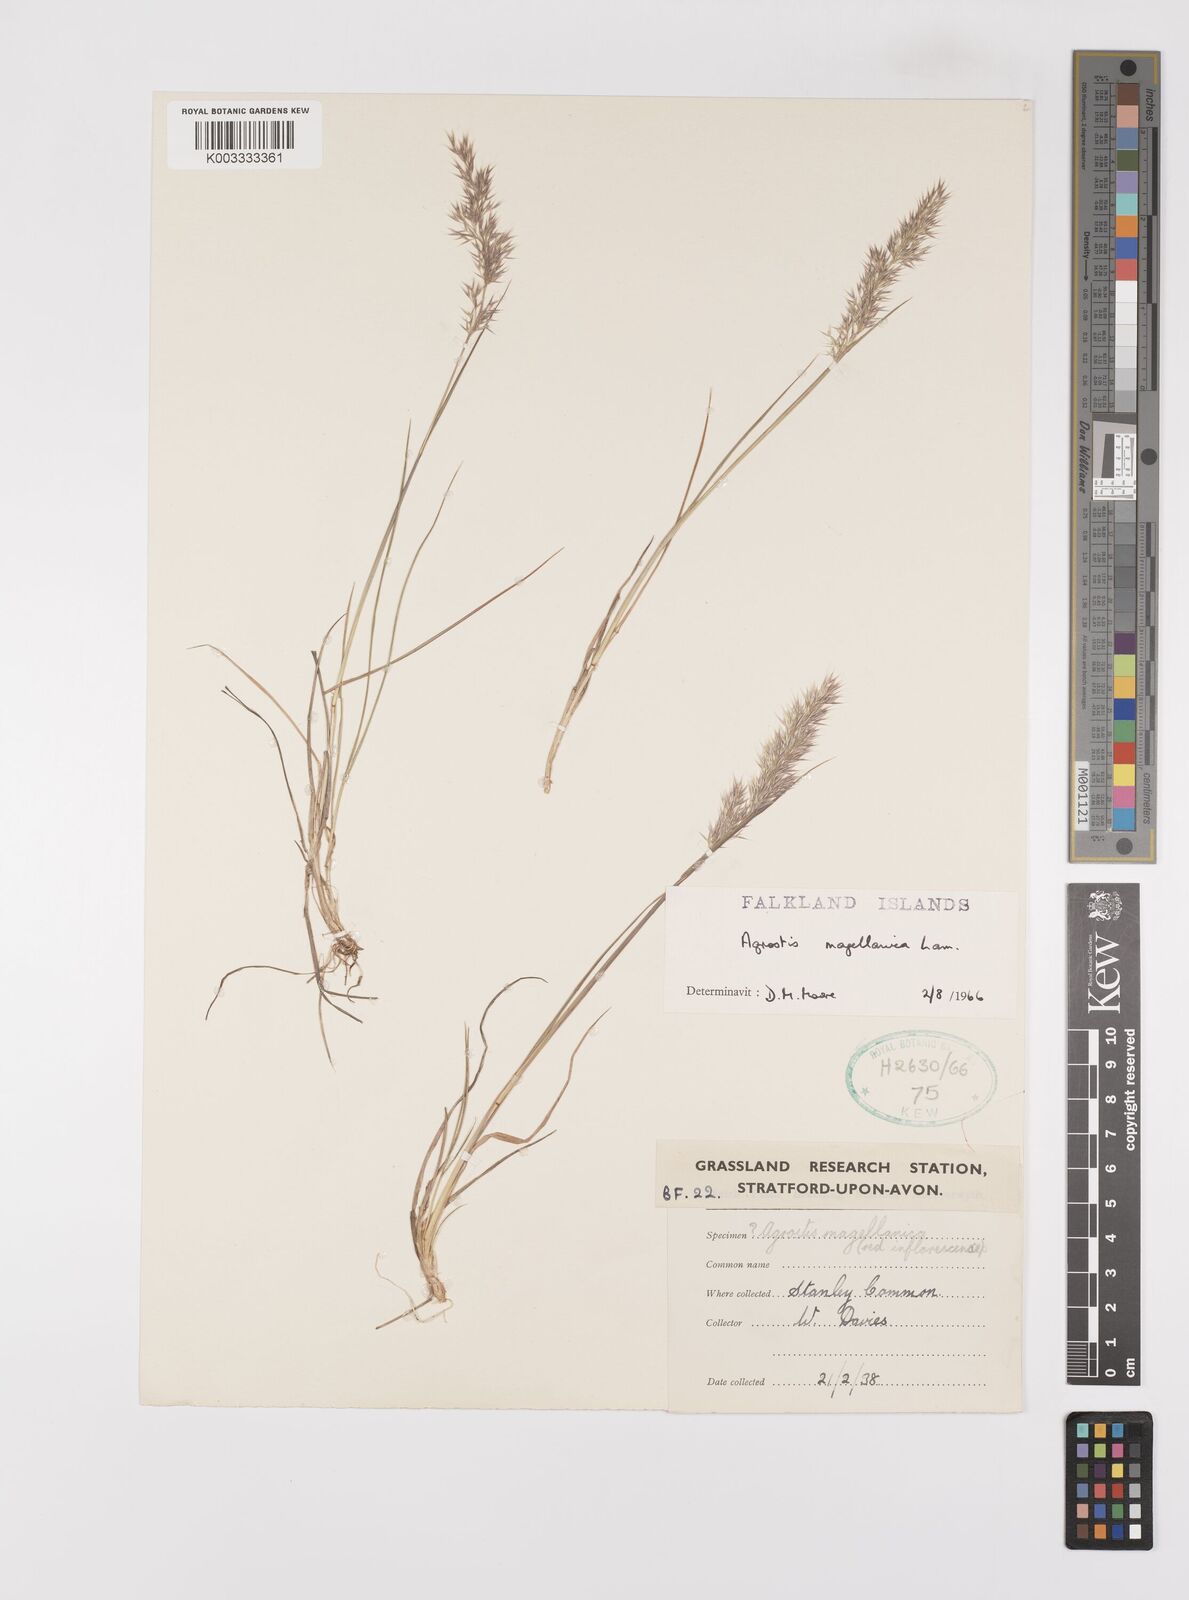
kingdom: Plantae
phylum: Tracheophyta
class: Liliopsida
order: Poales
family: Poaceae
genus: Polypogon
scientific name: Polypogon magellanicus
